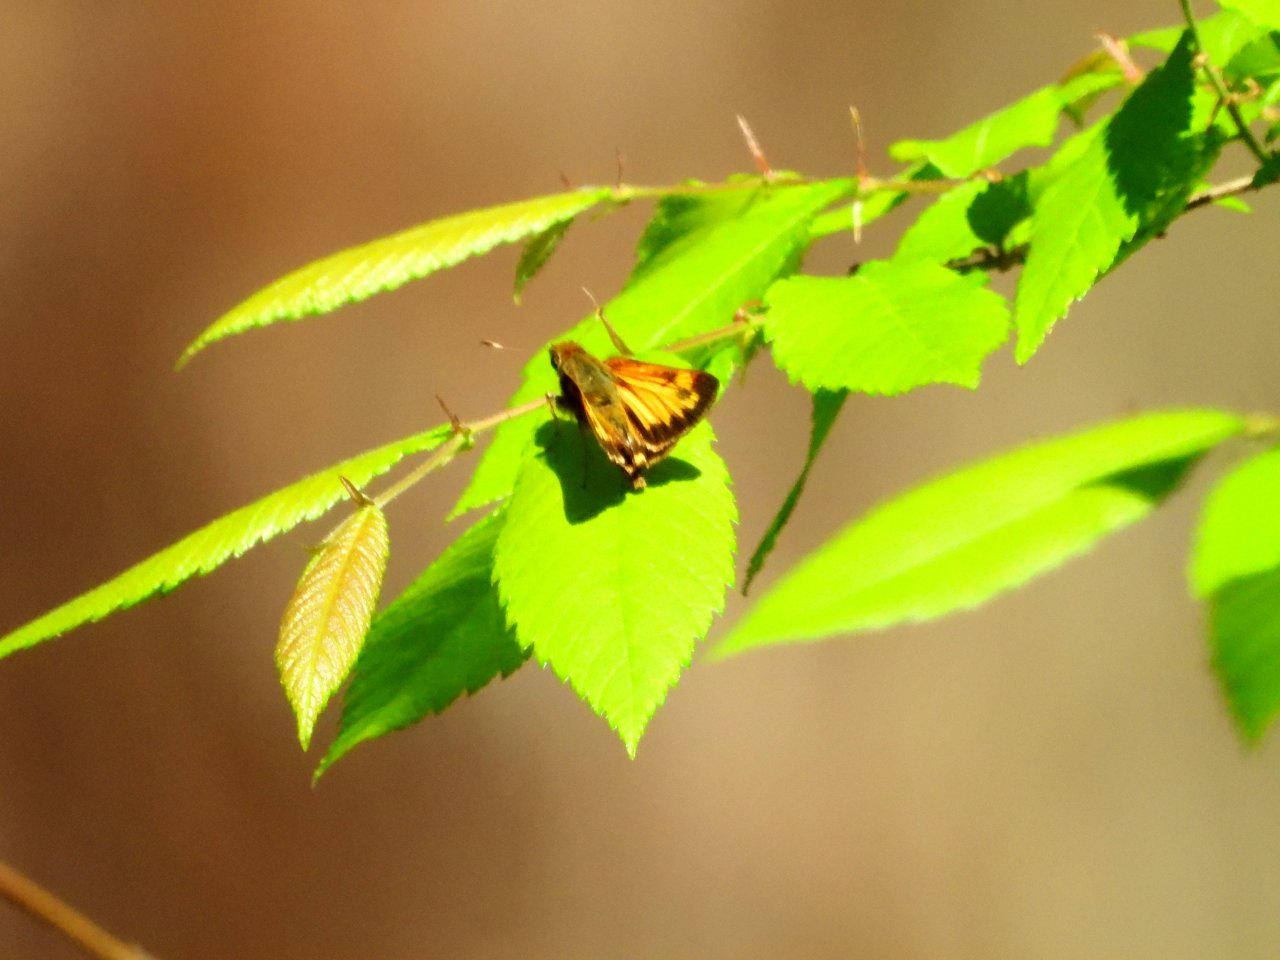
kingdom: Animalia
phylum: Arthropoda
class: Insecta
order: Lepidoptera
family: Hesperiidae
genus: Lon
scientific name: Lon zabulon
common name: Zabulon Skipper
